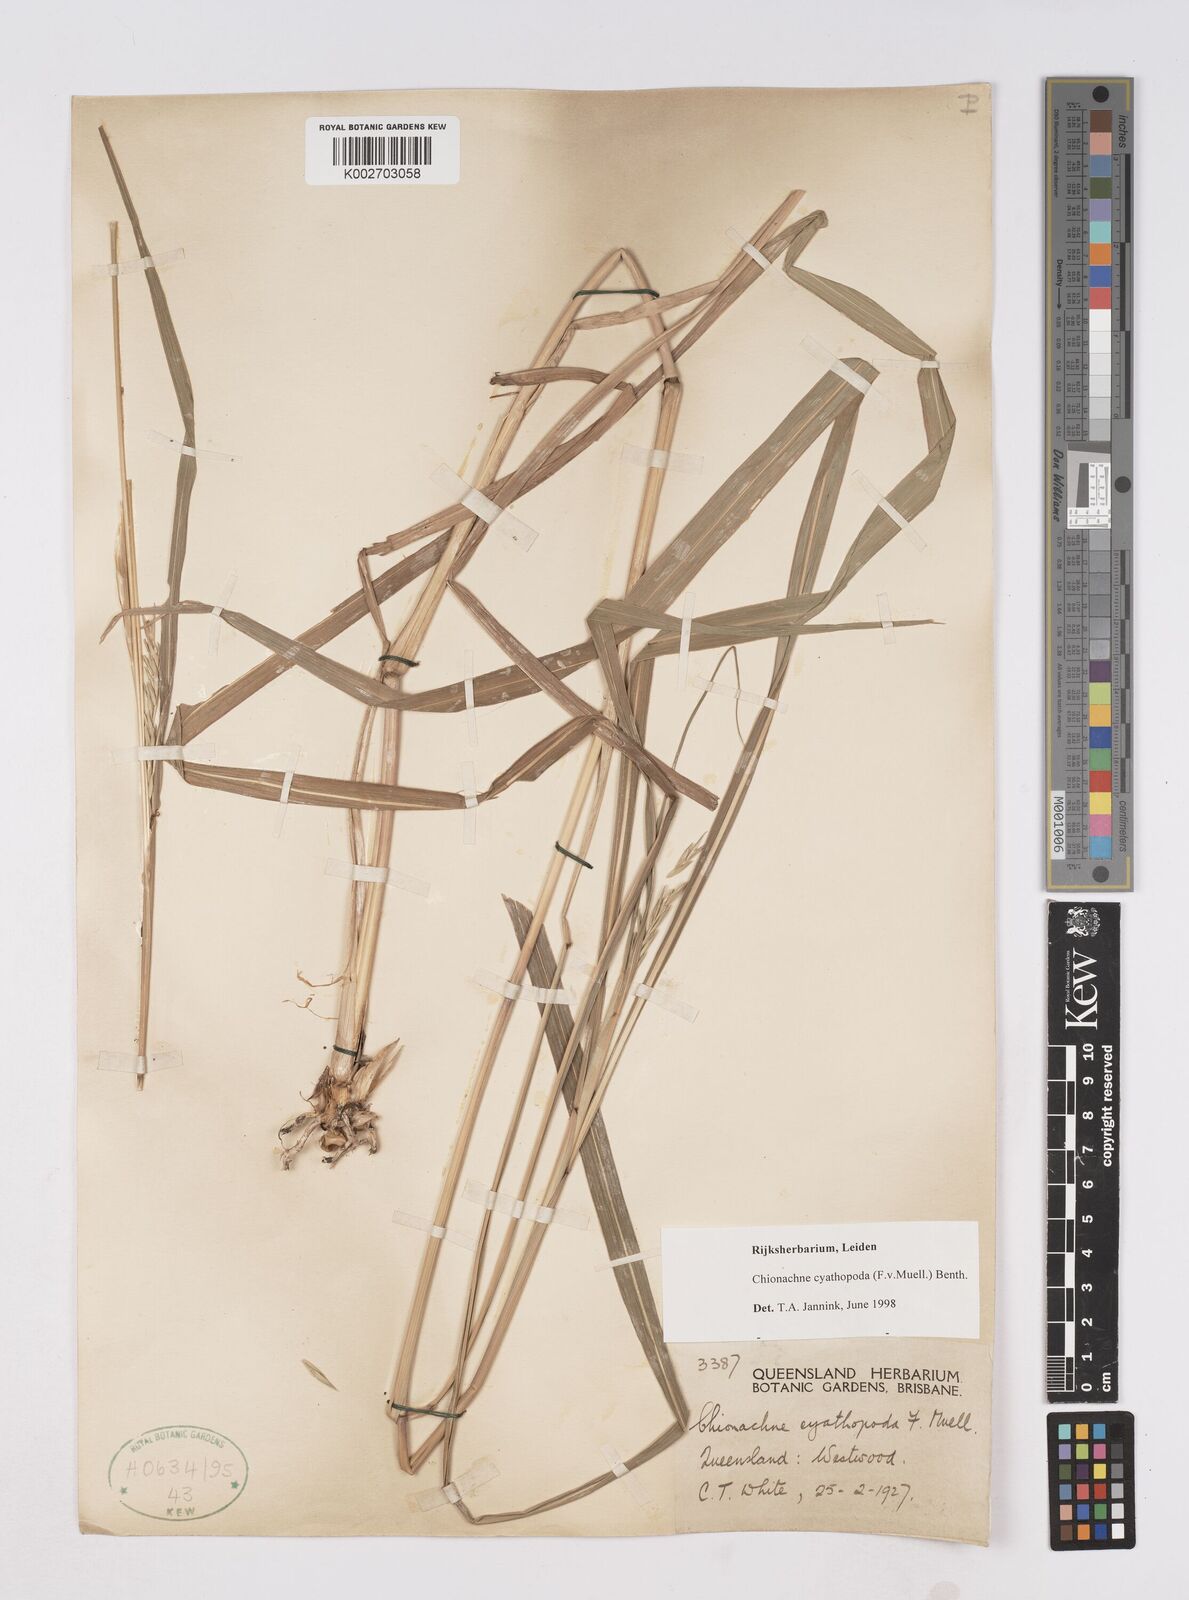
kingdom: Plantae
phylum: Tracheophyta
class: Liliopsida
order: Poales
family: Poaceae
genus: Polytoca
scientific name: Polytoca cyathopoda
